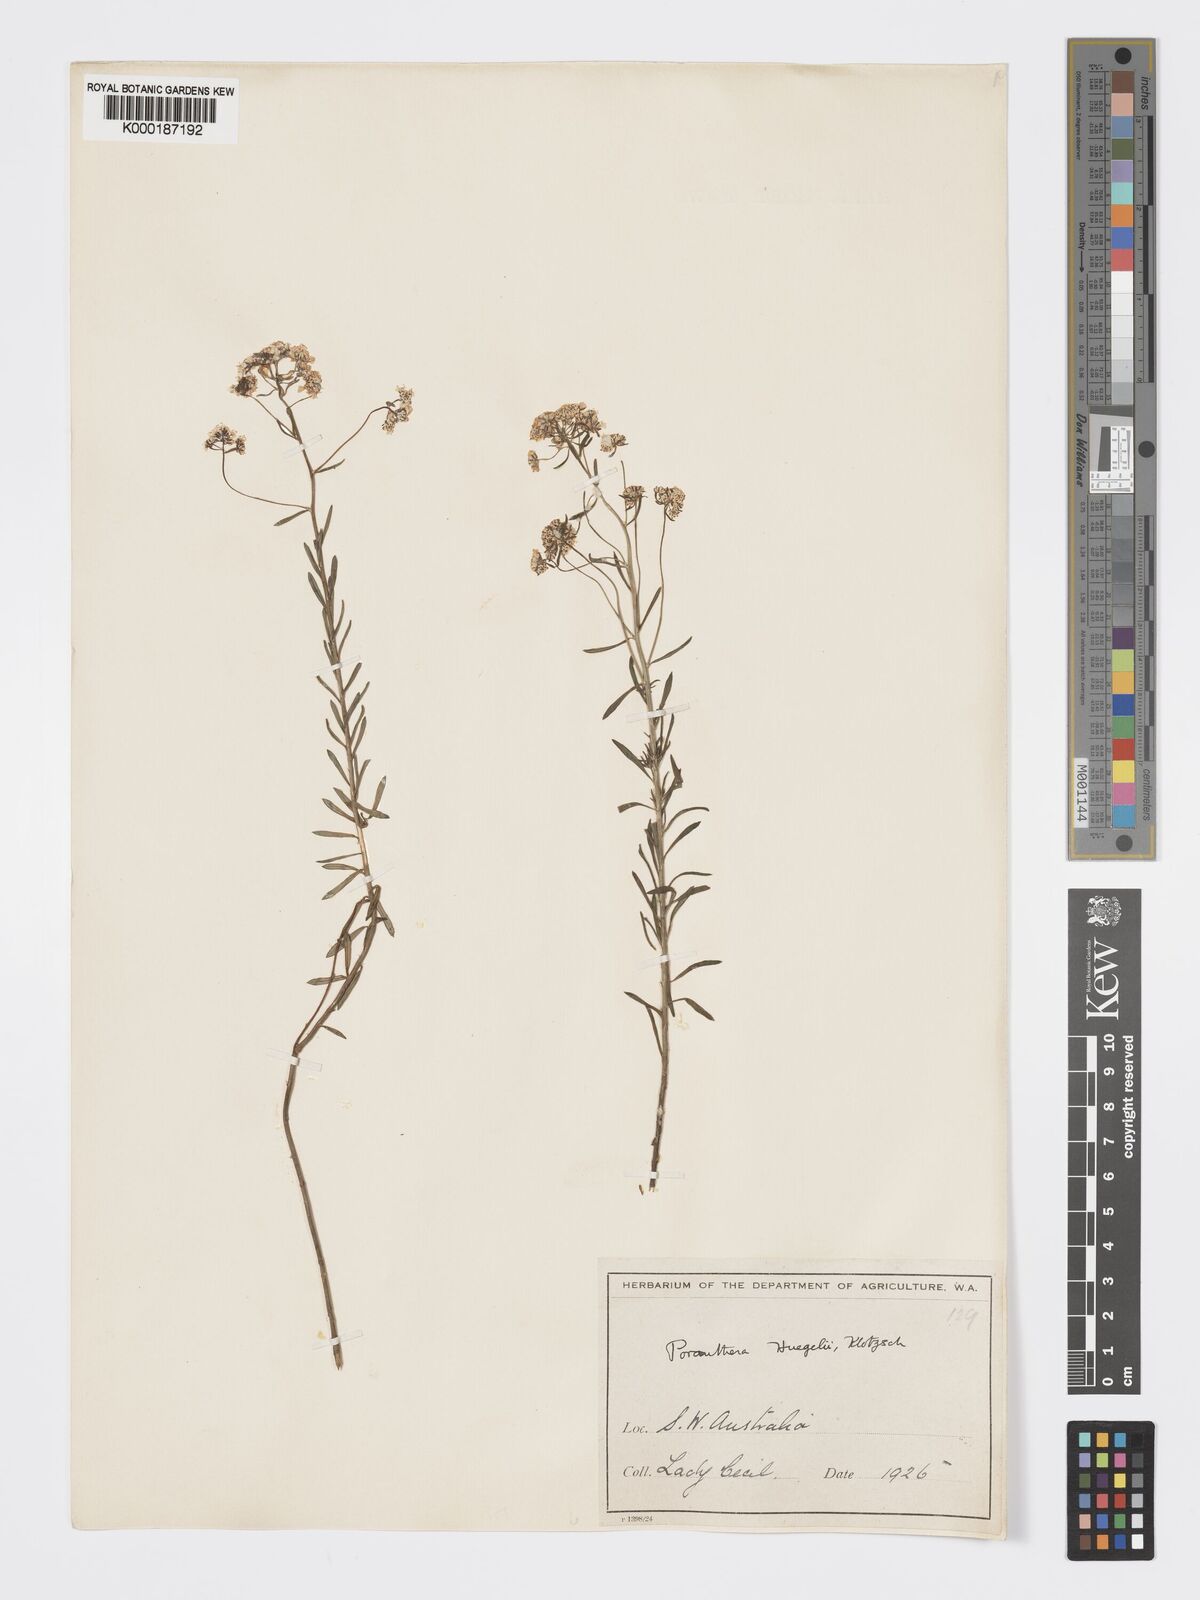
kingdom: Plantae
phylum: Tracheophyta
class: Magnoliopsida
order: Malpighiales
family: Phyllanthaceae
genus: Poranthera
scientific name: Poranthera huegelii
